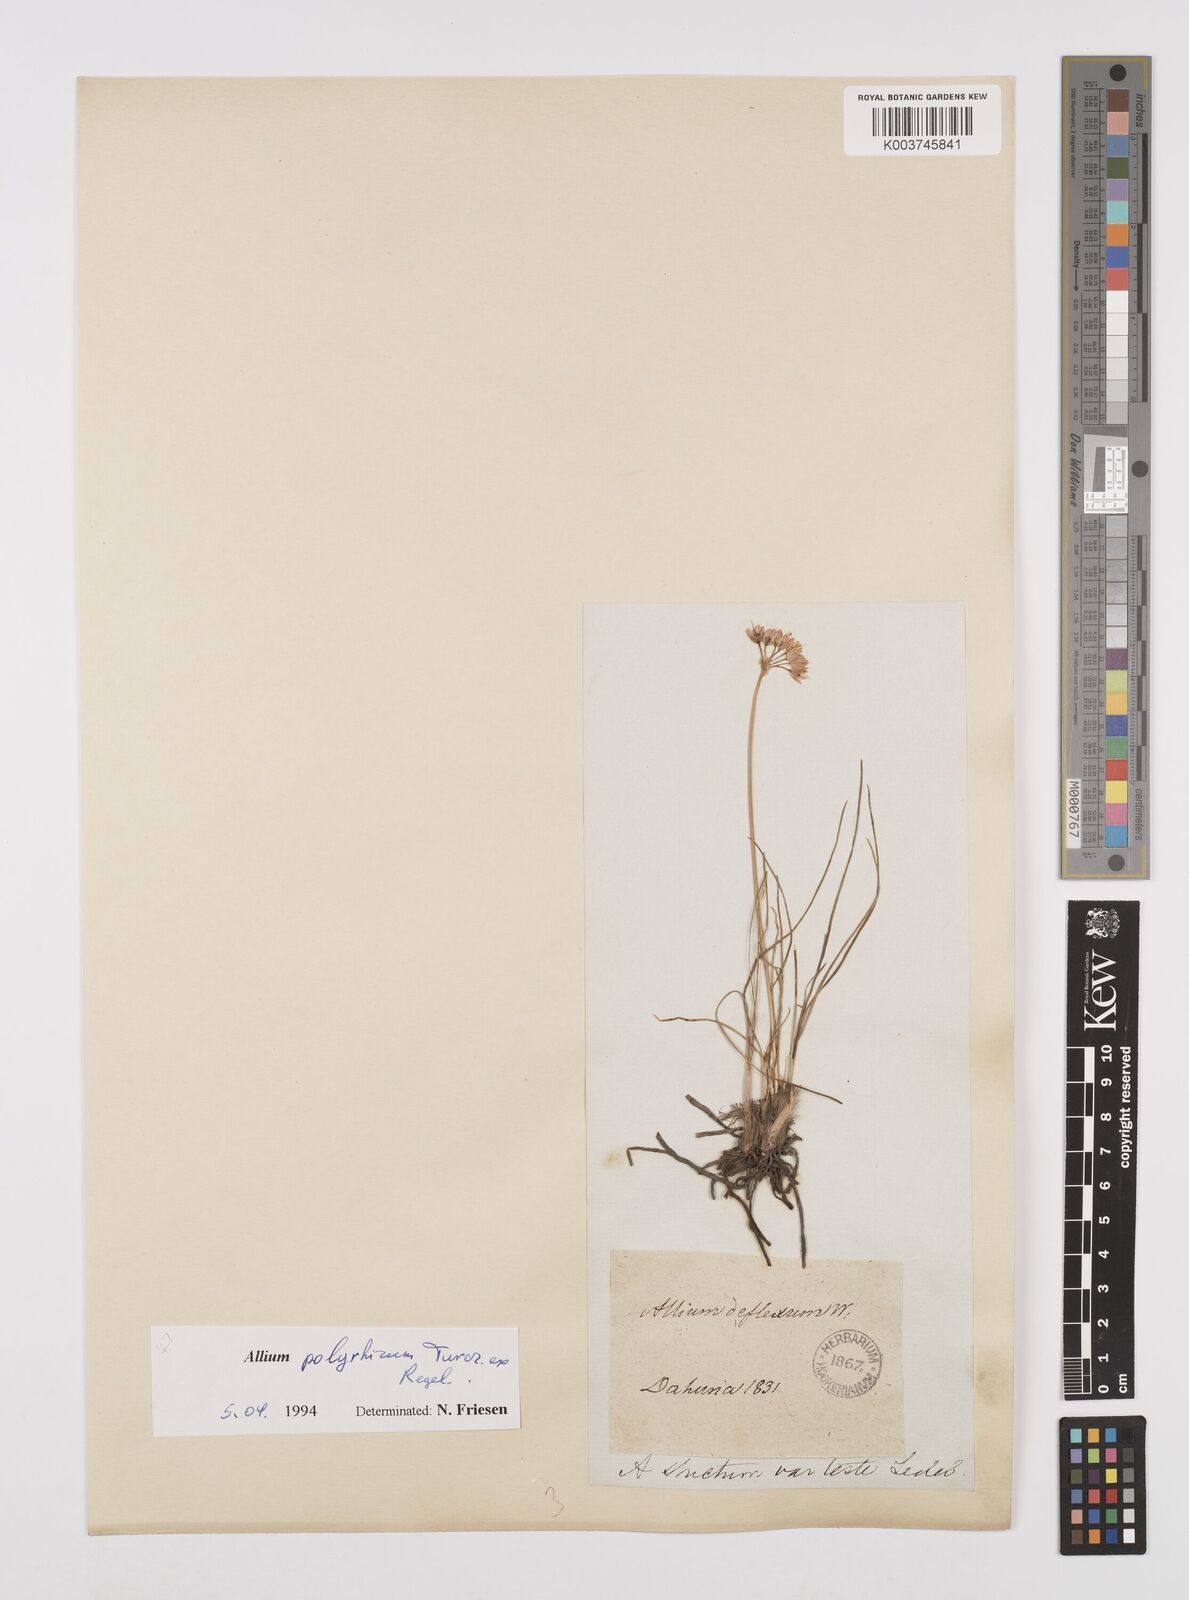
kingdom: Plantae
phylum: Tracheophyta
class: Liliopsida
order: Asparagales
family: Amaryllidaceae
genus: Allium
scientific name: Allium polyrhizum
